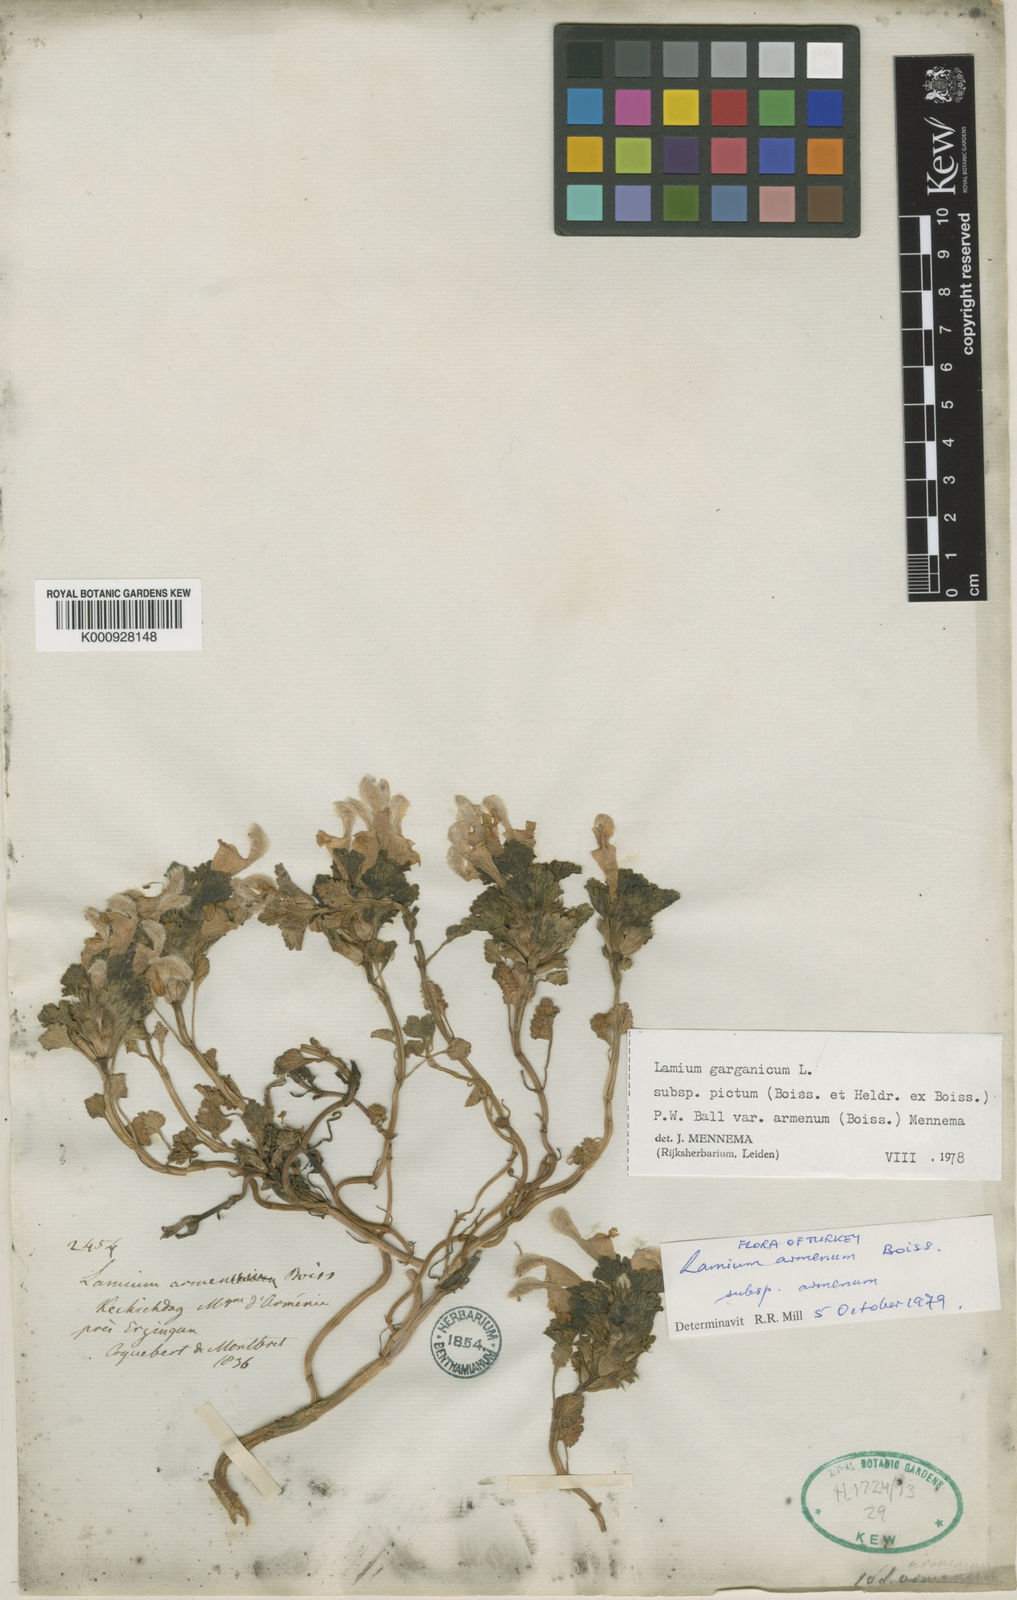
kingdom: Plantae
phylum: Tracheophyta
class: Magnoliopsida
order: Lamiales
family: Lamiaceae
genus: Lamium
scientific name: Lamium garganicum
